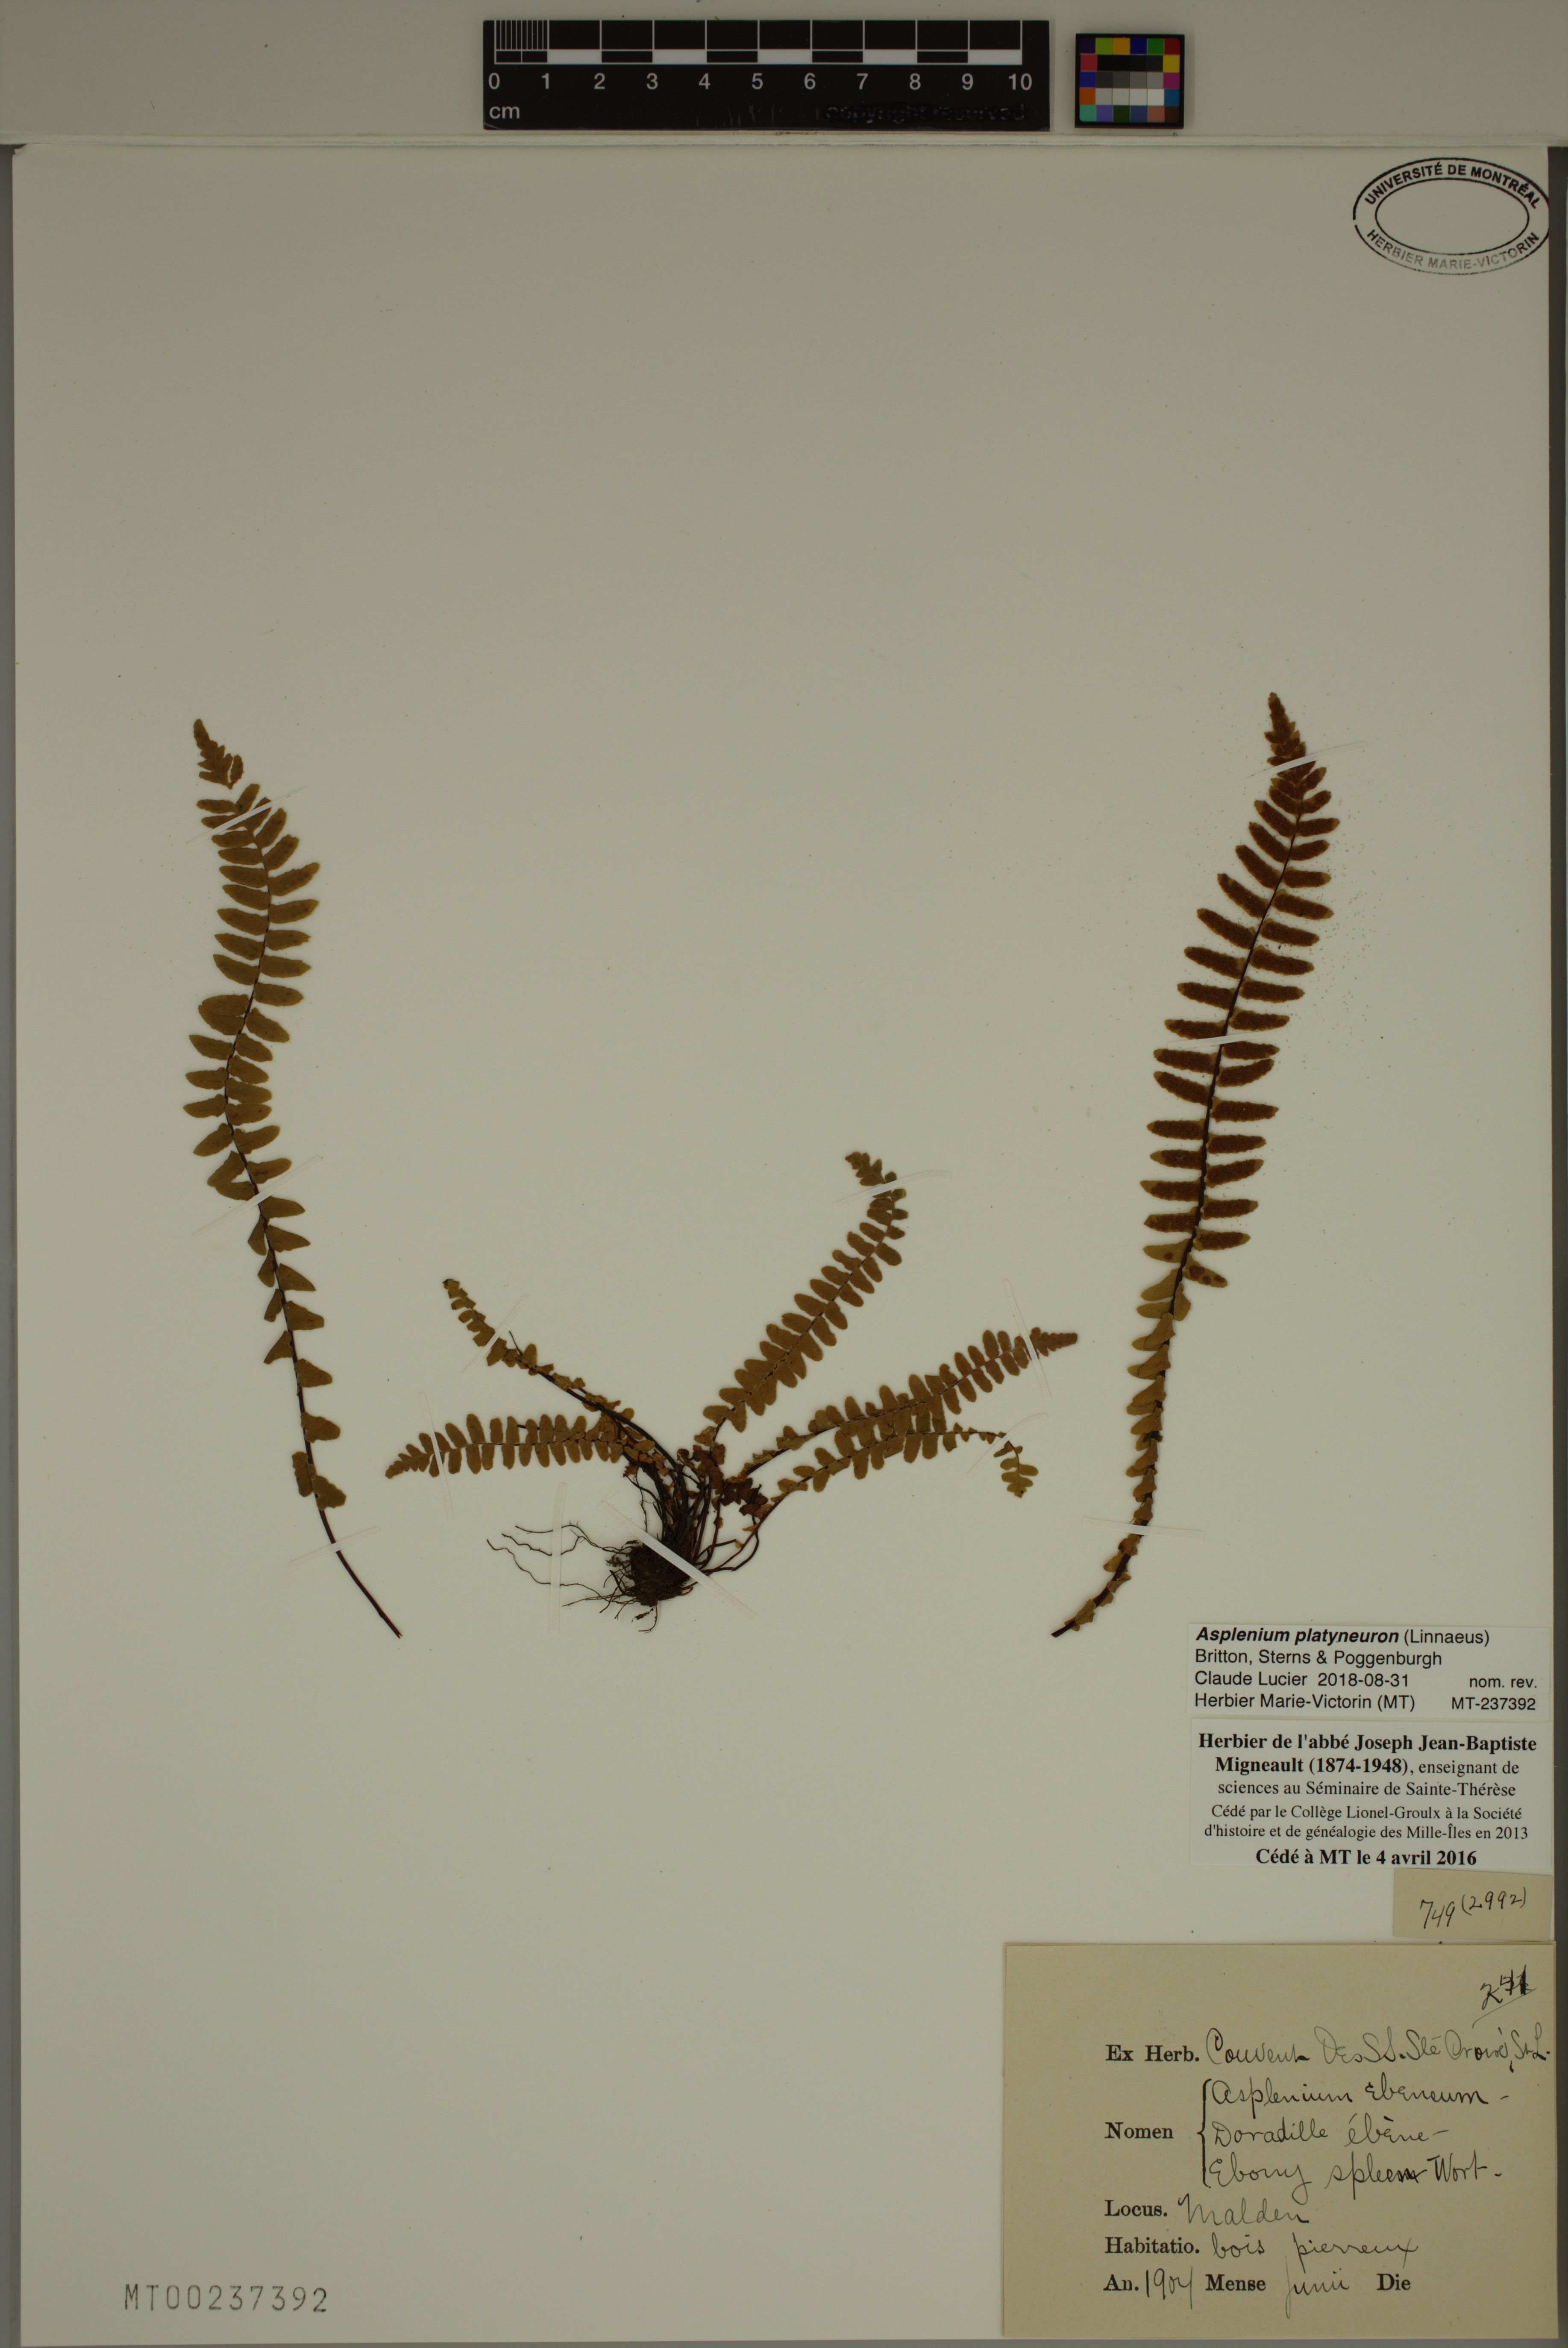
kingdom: Plantae
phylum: Tracheophyta
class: Polypodiopsida
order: Polypodiales
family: Aspleniaceae
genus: Asplenium
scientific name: Asplenium platyneuron
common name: Ebony spleenwort
